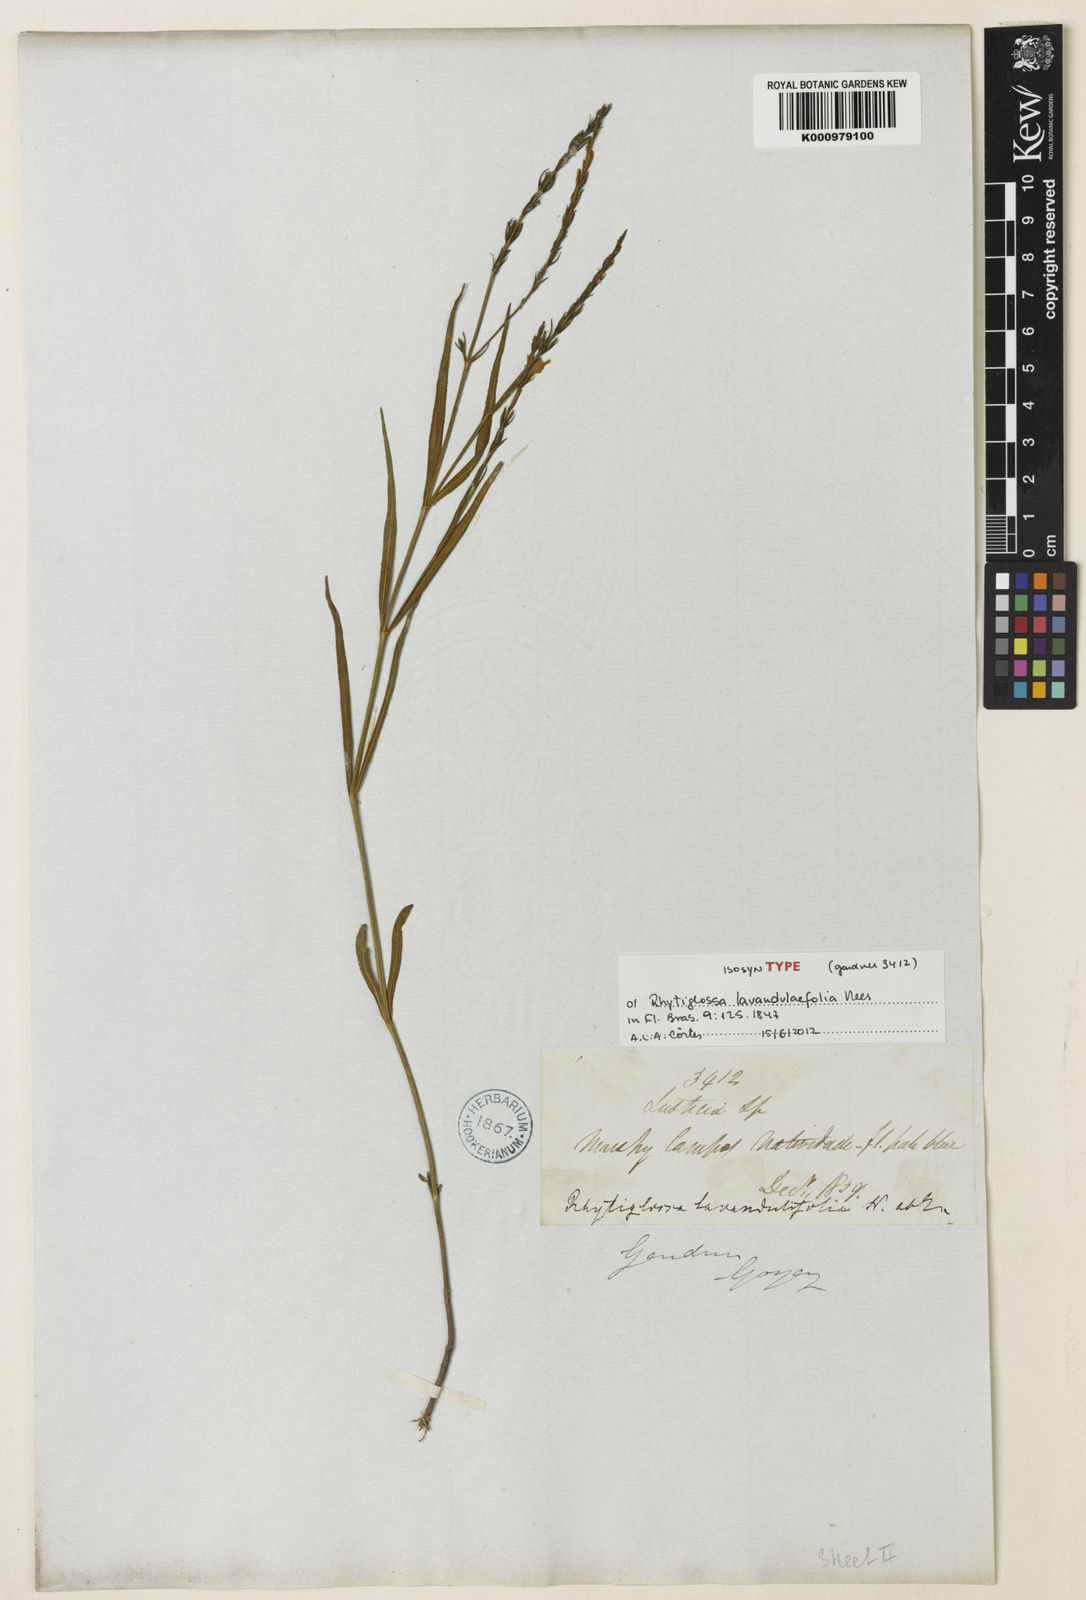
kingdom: Plantae
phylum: Tracheophyta
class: Magnoliopsida
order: Lamiales
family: Acanthaceae
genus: Justicia
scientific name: Justicia lavandulifolia
